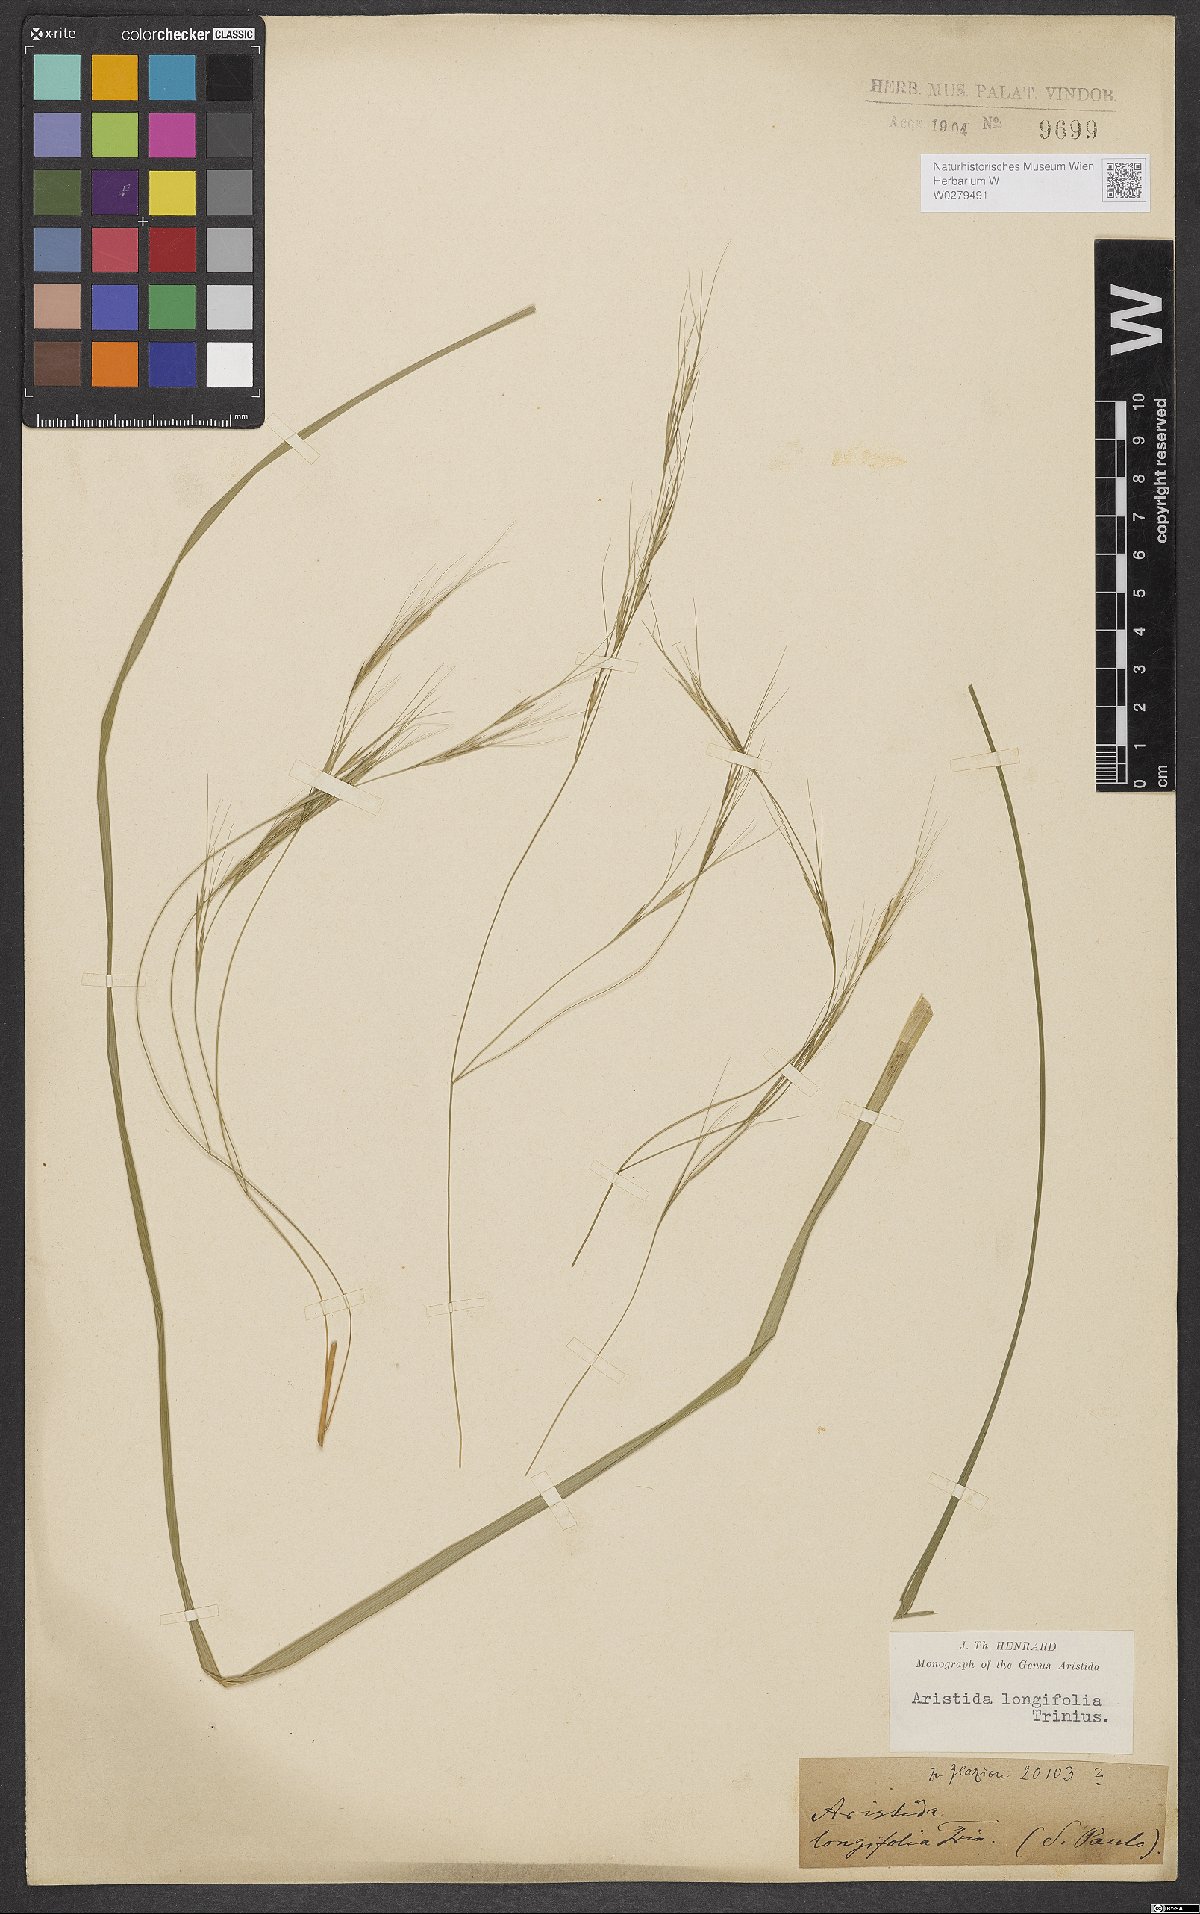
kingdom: Plantae
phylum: Tracheophyta
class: Liliopsida
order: Poales
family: Poaceae
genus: Aristida
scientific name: Aristida longifolia
